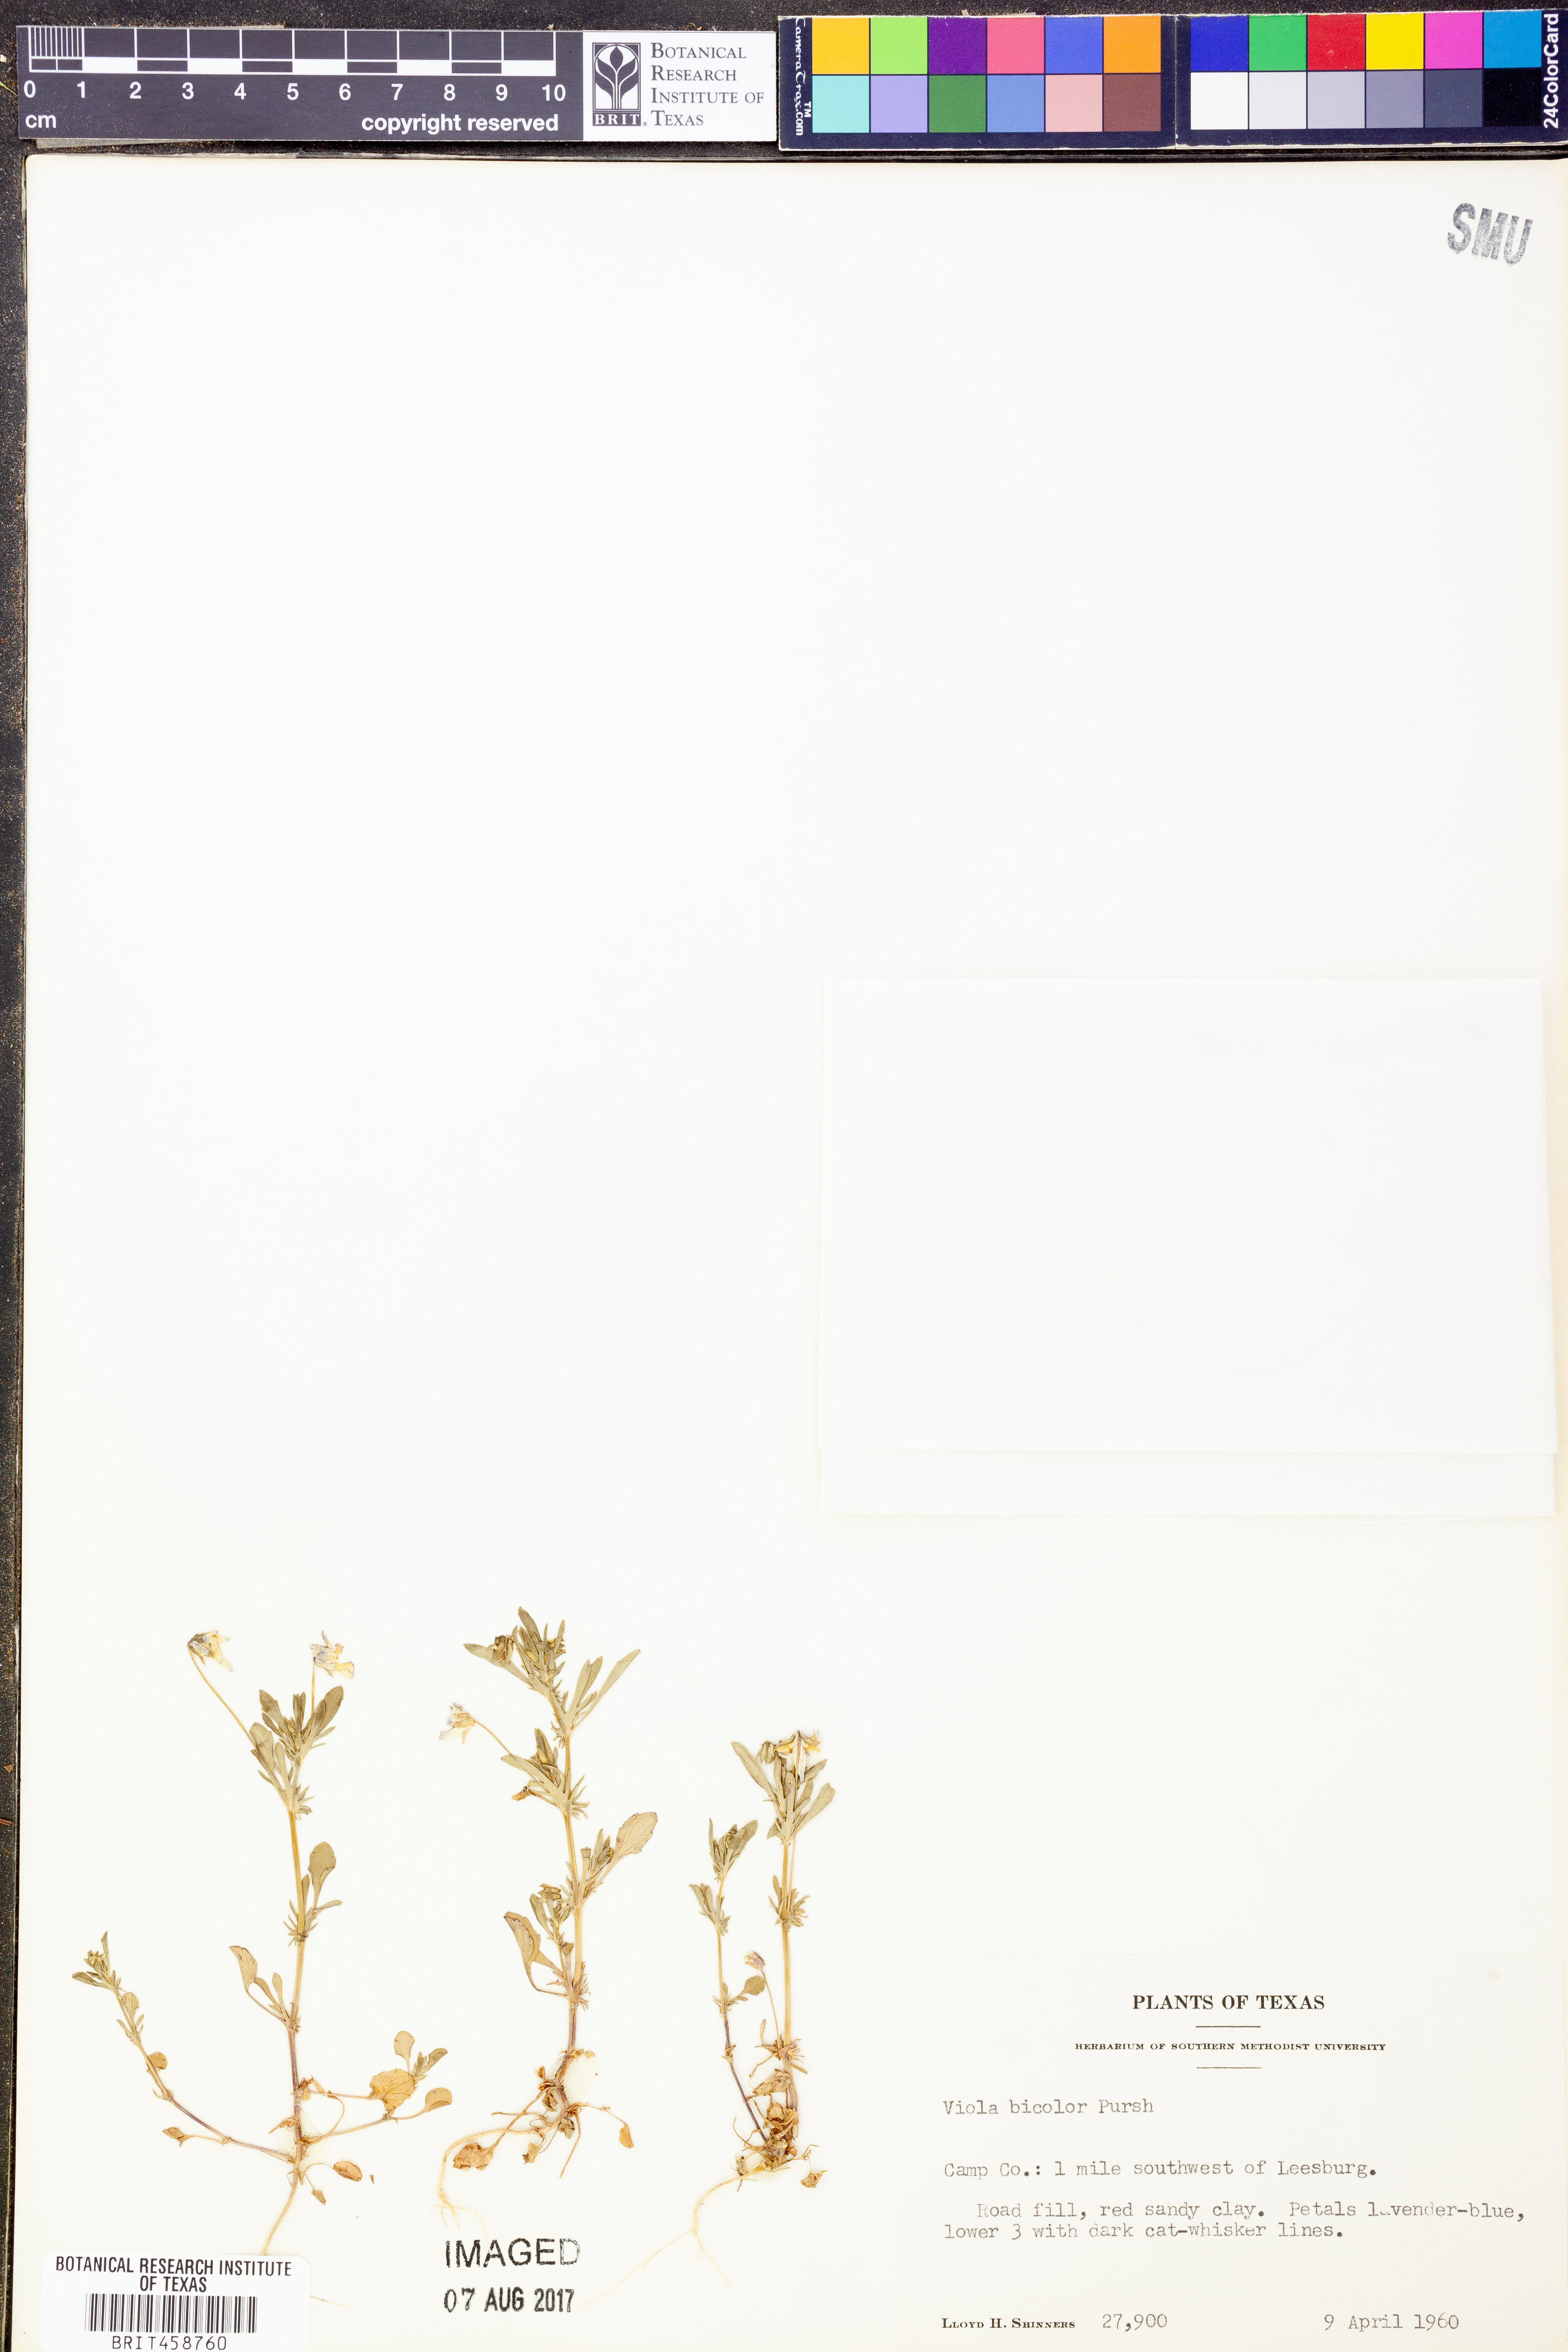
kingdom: Plantae
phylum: Tracheophyta
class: Magnoliopsida
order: Malpighiales
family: Violaceae
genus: Viola
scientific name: Viola rafinesquei
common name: American field pansy
